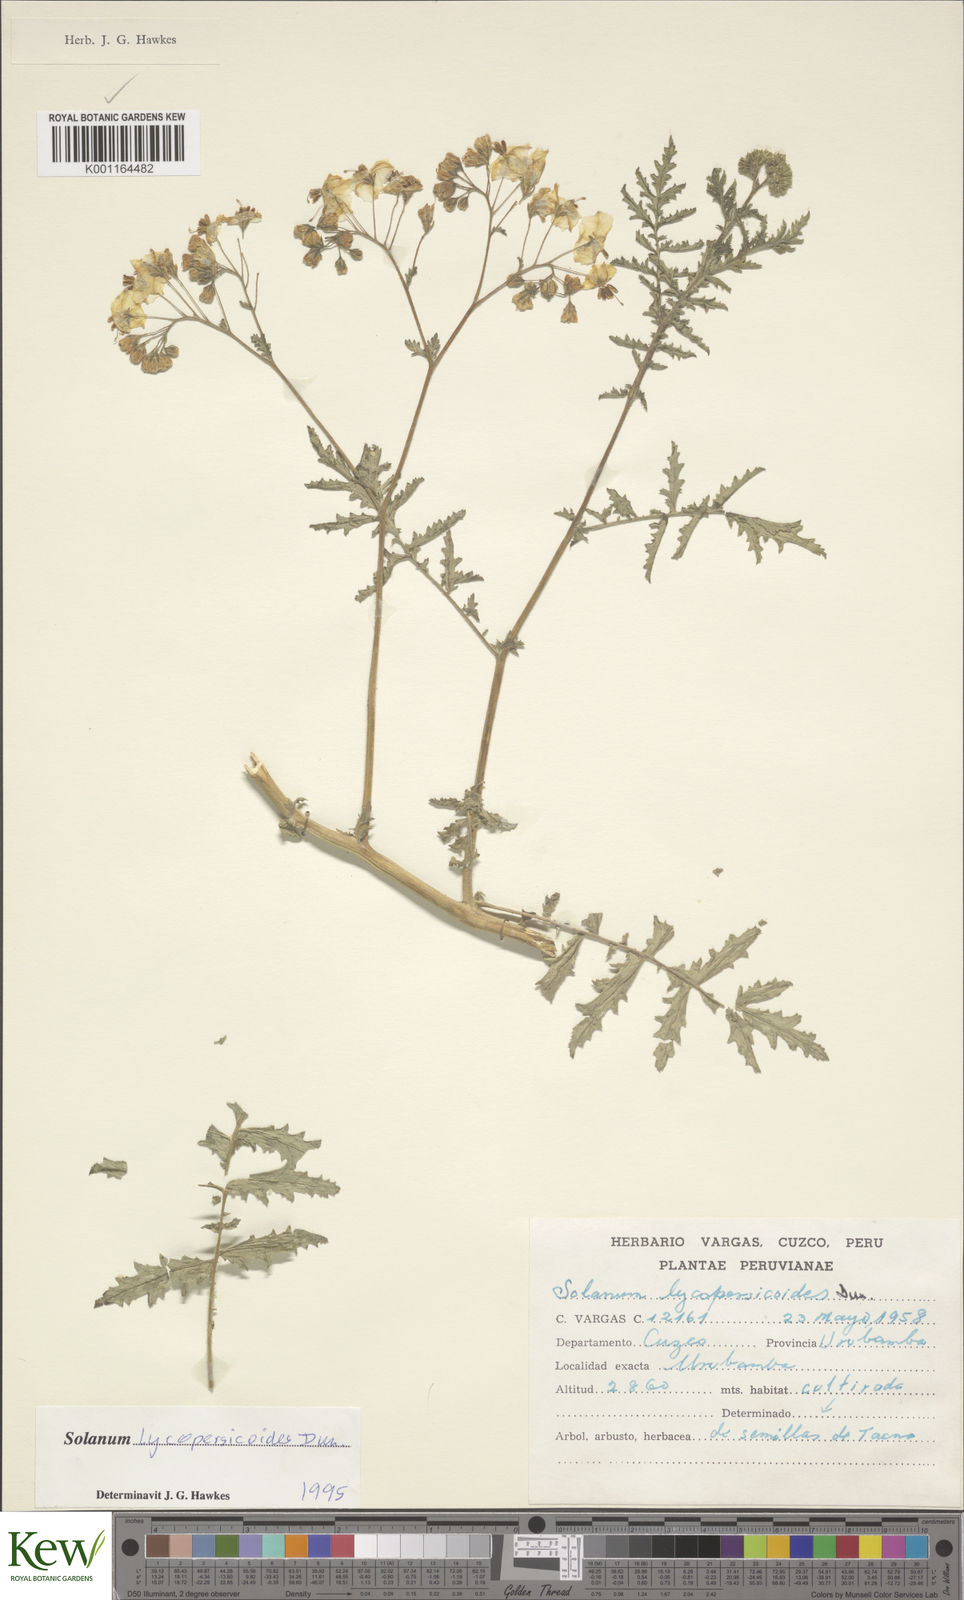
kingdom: Plantae
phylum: Tracheophyta
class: Magnoliopsida
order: Solanales
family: Solanaceae
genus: Solanum
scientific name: Solanum lycopersicoides
